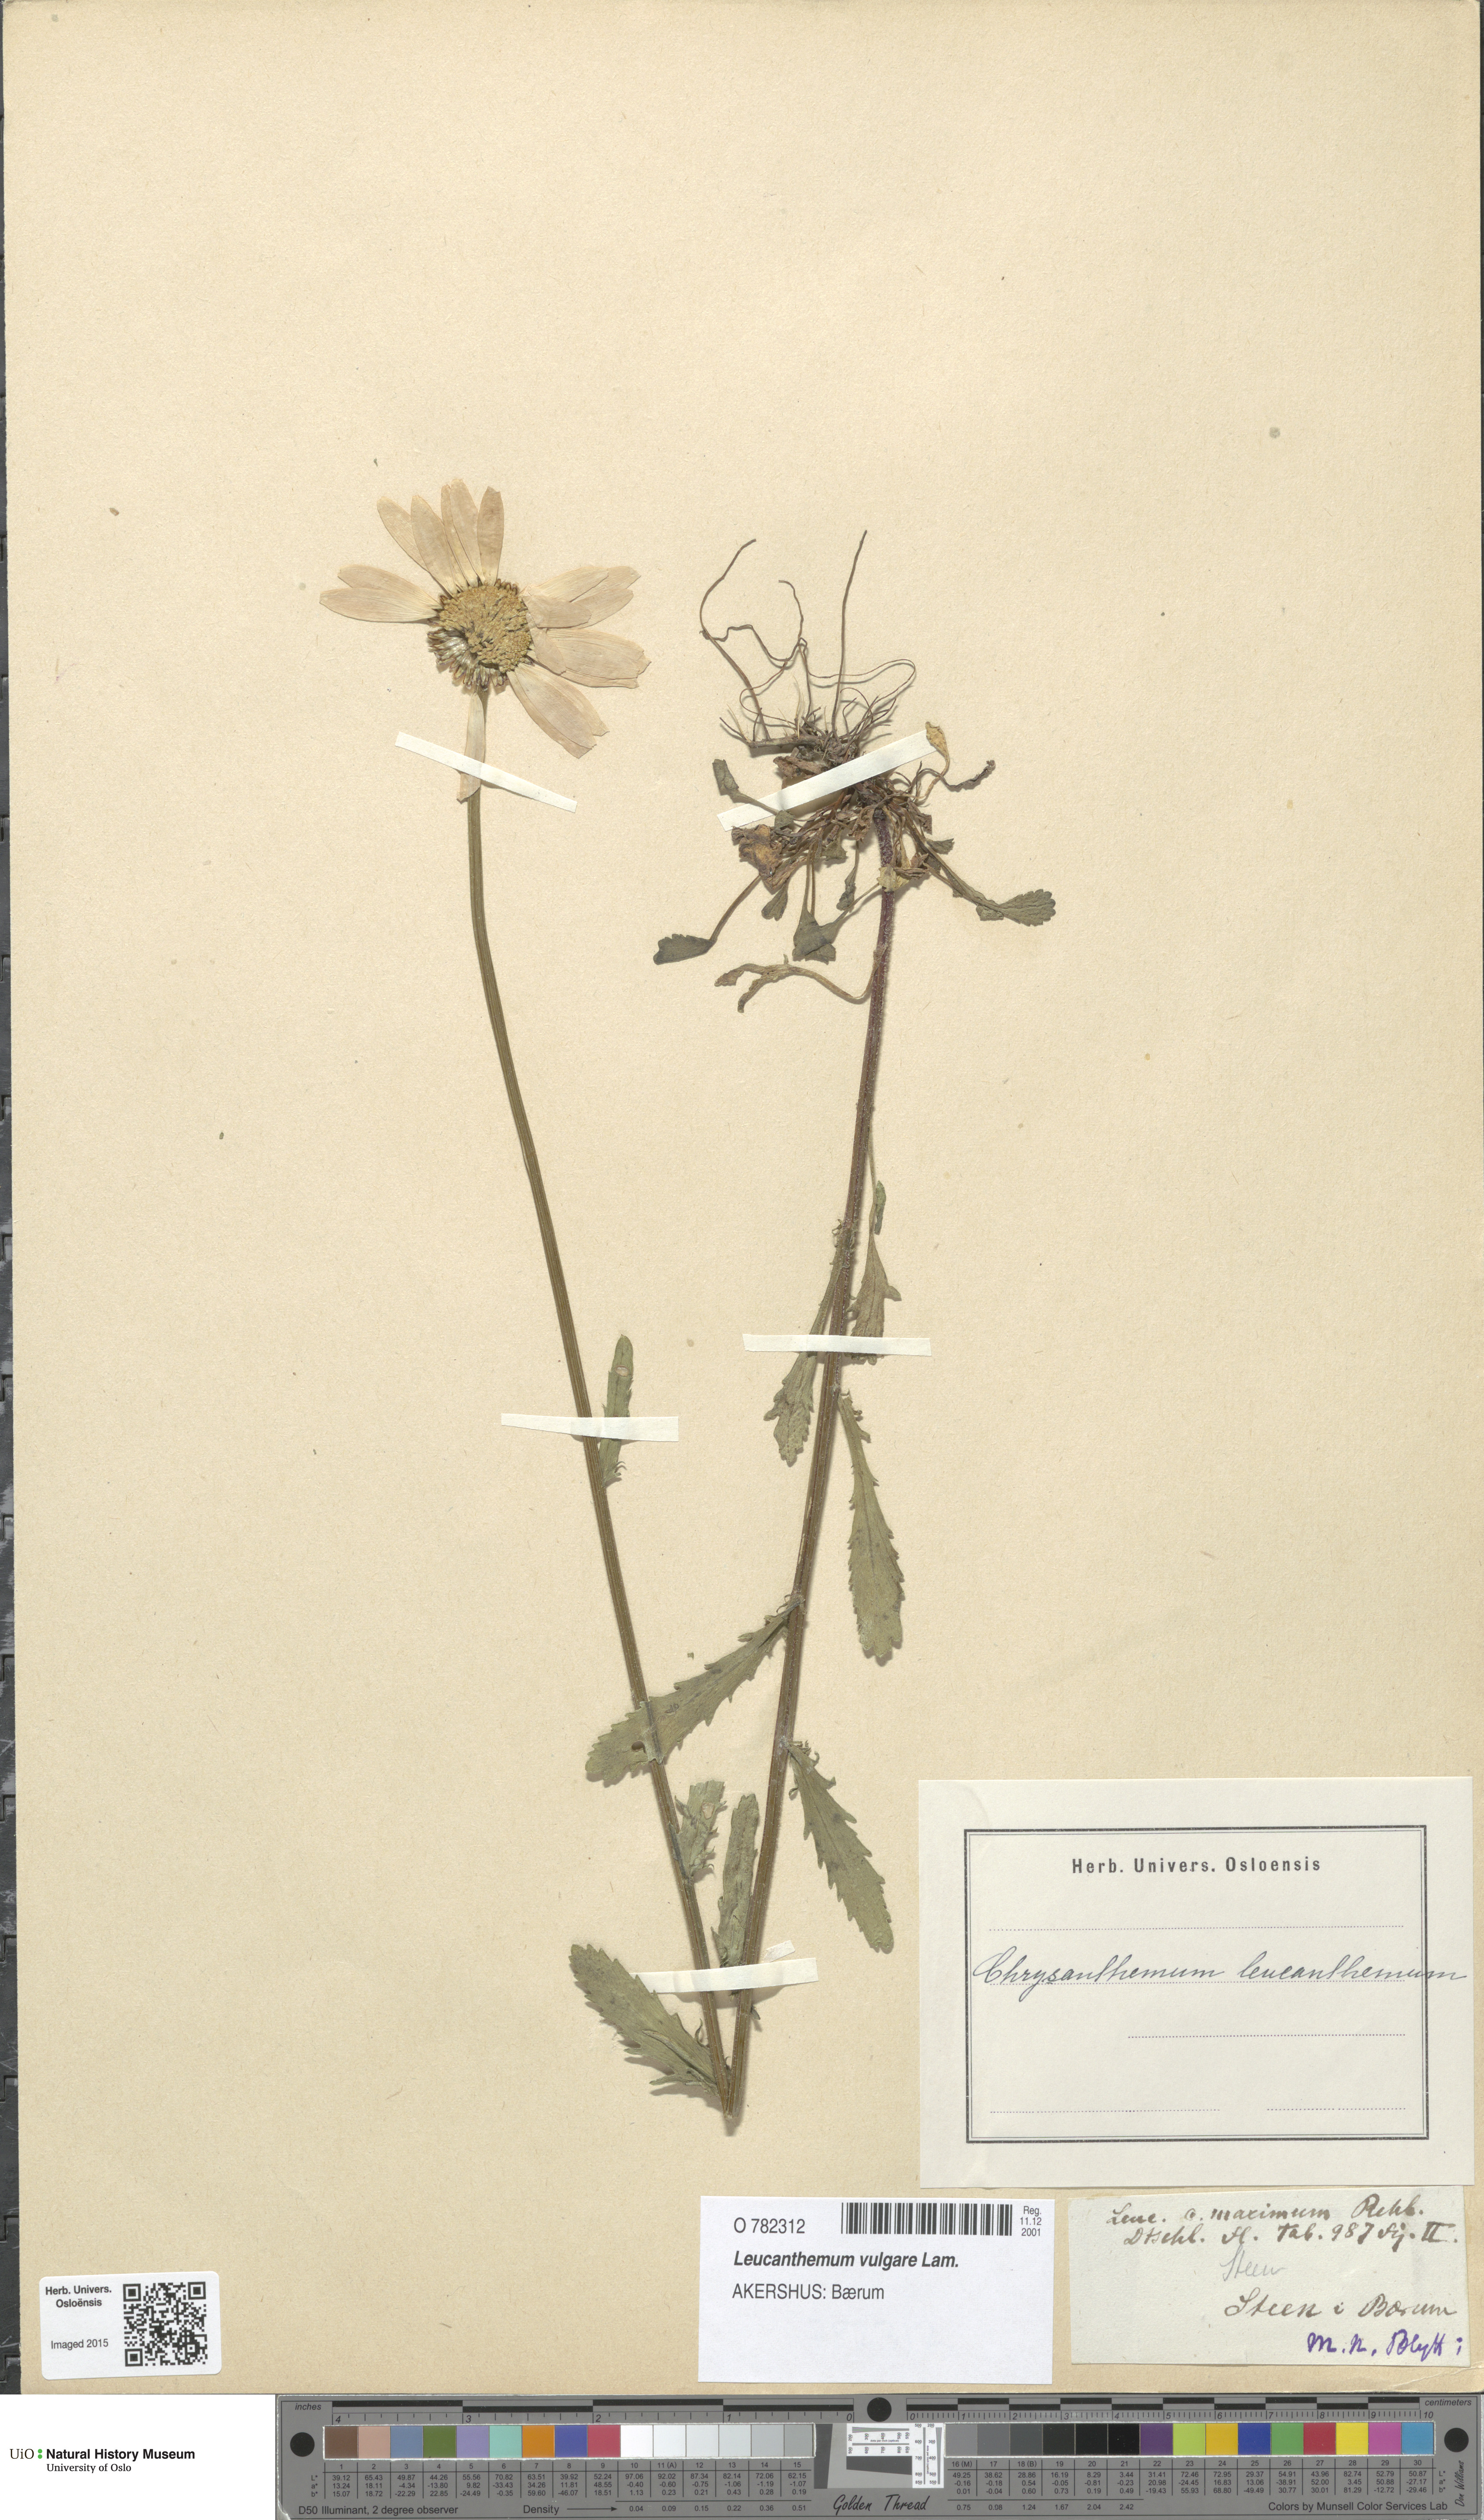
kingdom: Plantae
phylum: Tracheophyta
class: Magnoliopsida
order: Asterales
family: Asteraceae
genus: Leucanthemum
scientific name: Leucanthemum vulgare
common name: Oxeye daisy
